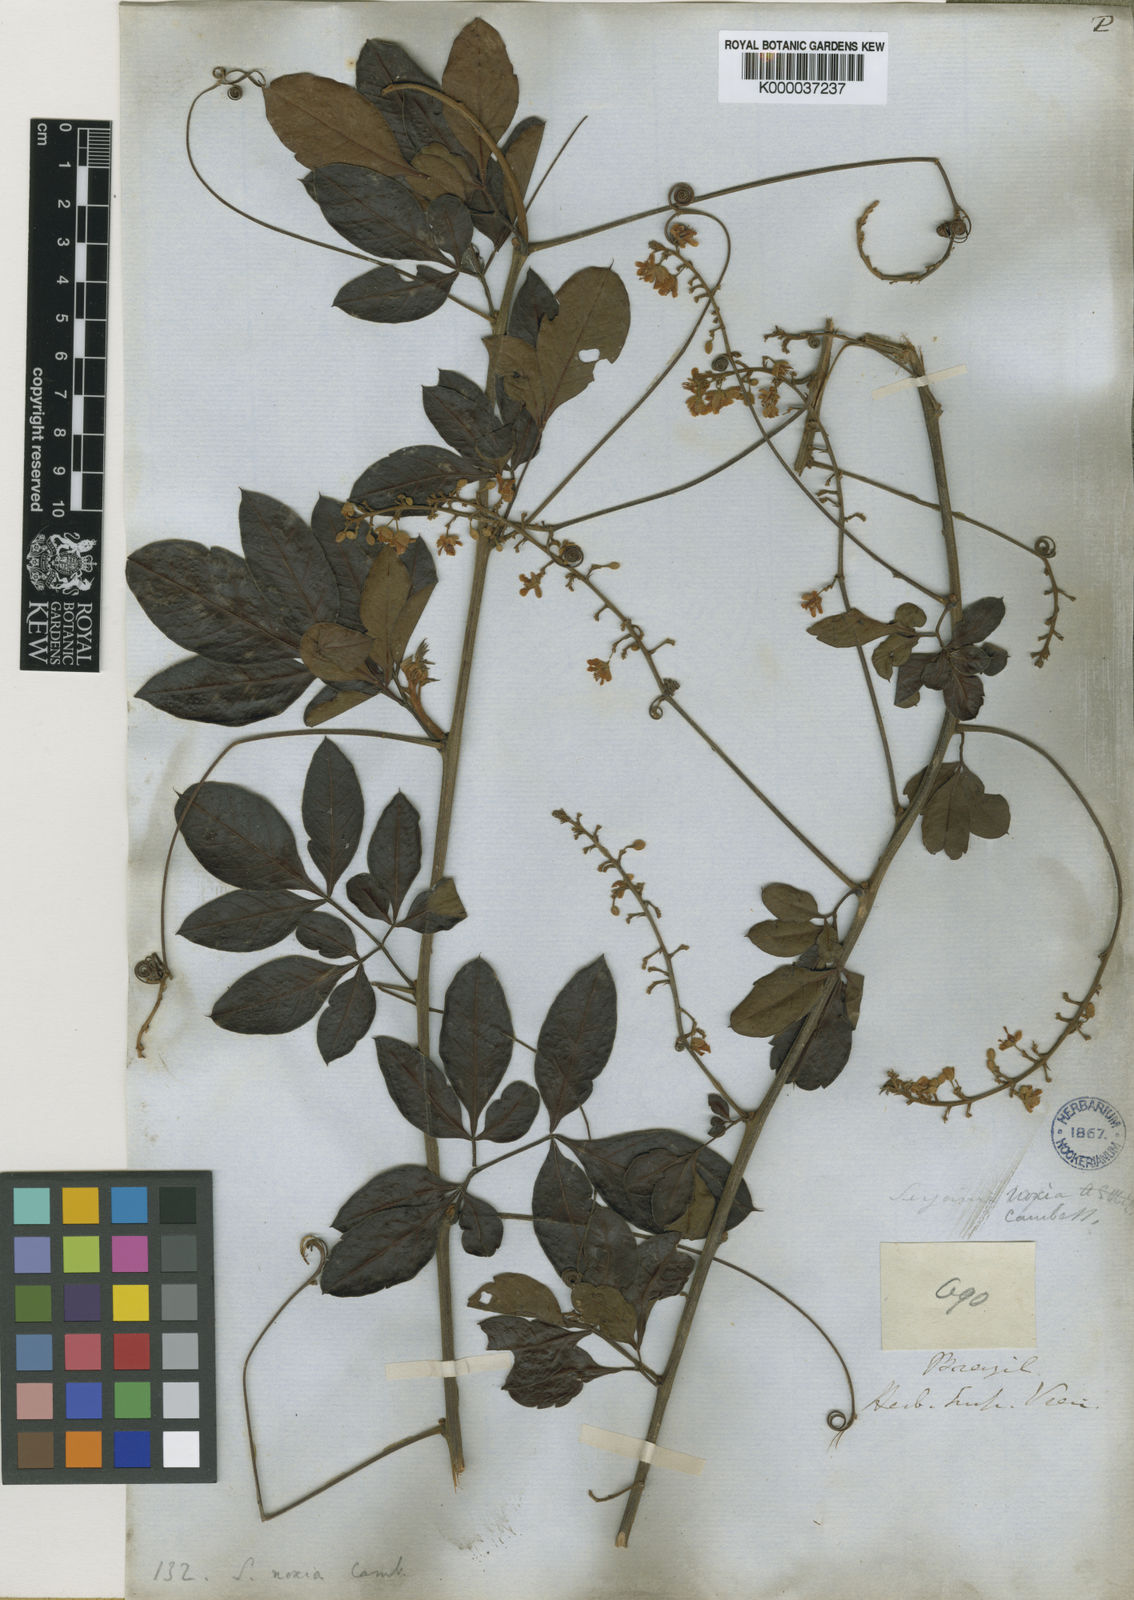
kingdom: Plantae
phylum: Tracheophyta
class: Magnoliopsida
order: Sapindales
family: Sapindaceae
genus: Serjania
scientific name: Serjania noxia
